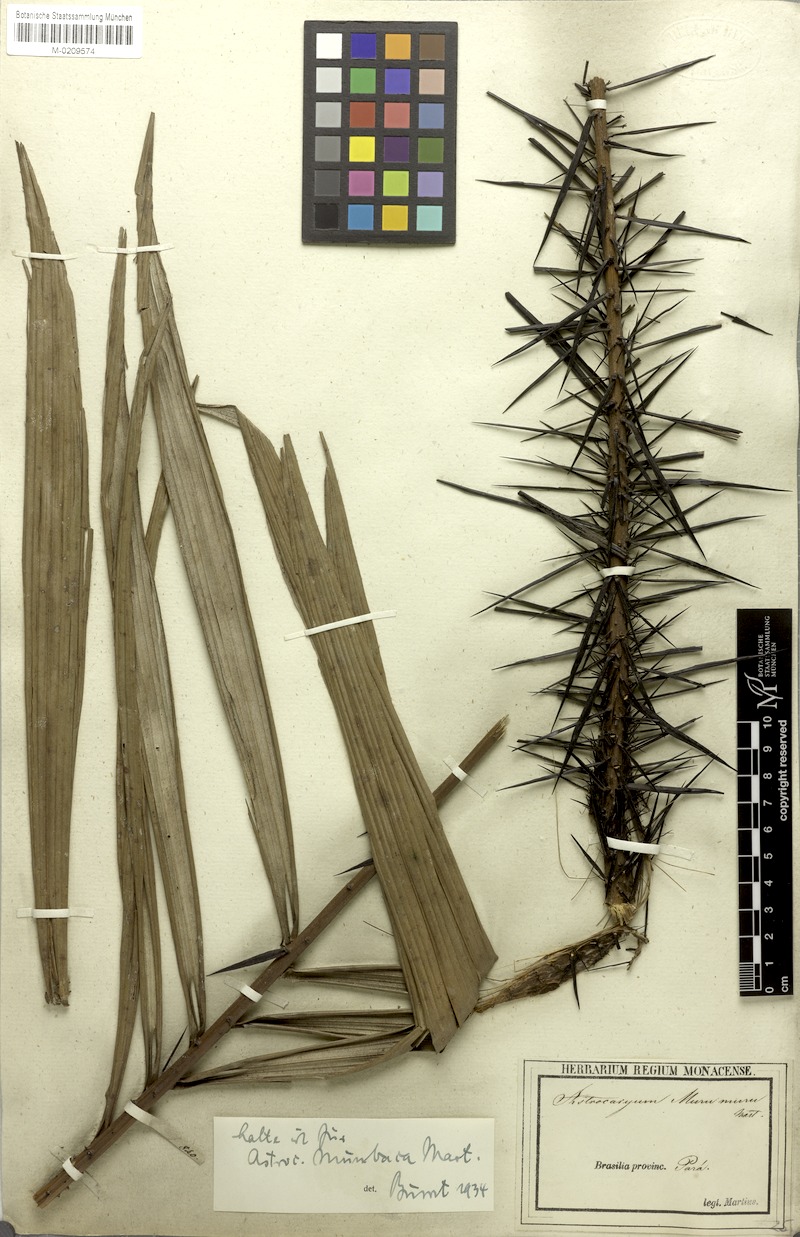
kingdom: Plantae
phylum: Tracheophyta
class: Liliopsida
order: Arecales
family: Arecaceae
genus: Astrocaryum
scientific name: Astrocaryum murumuru
